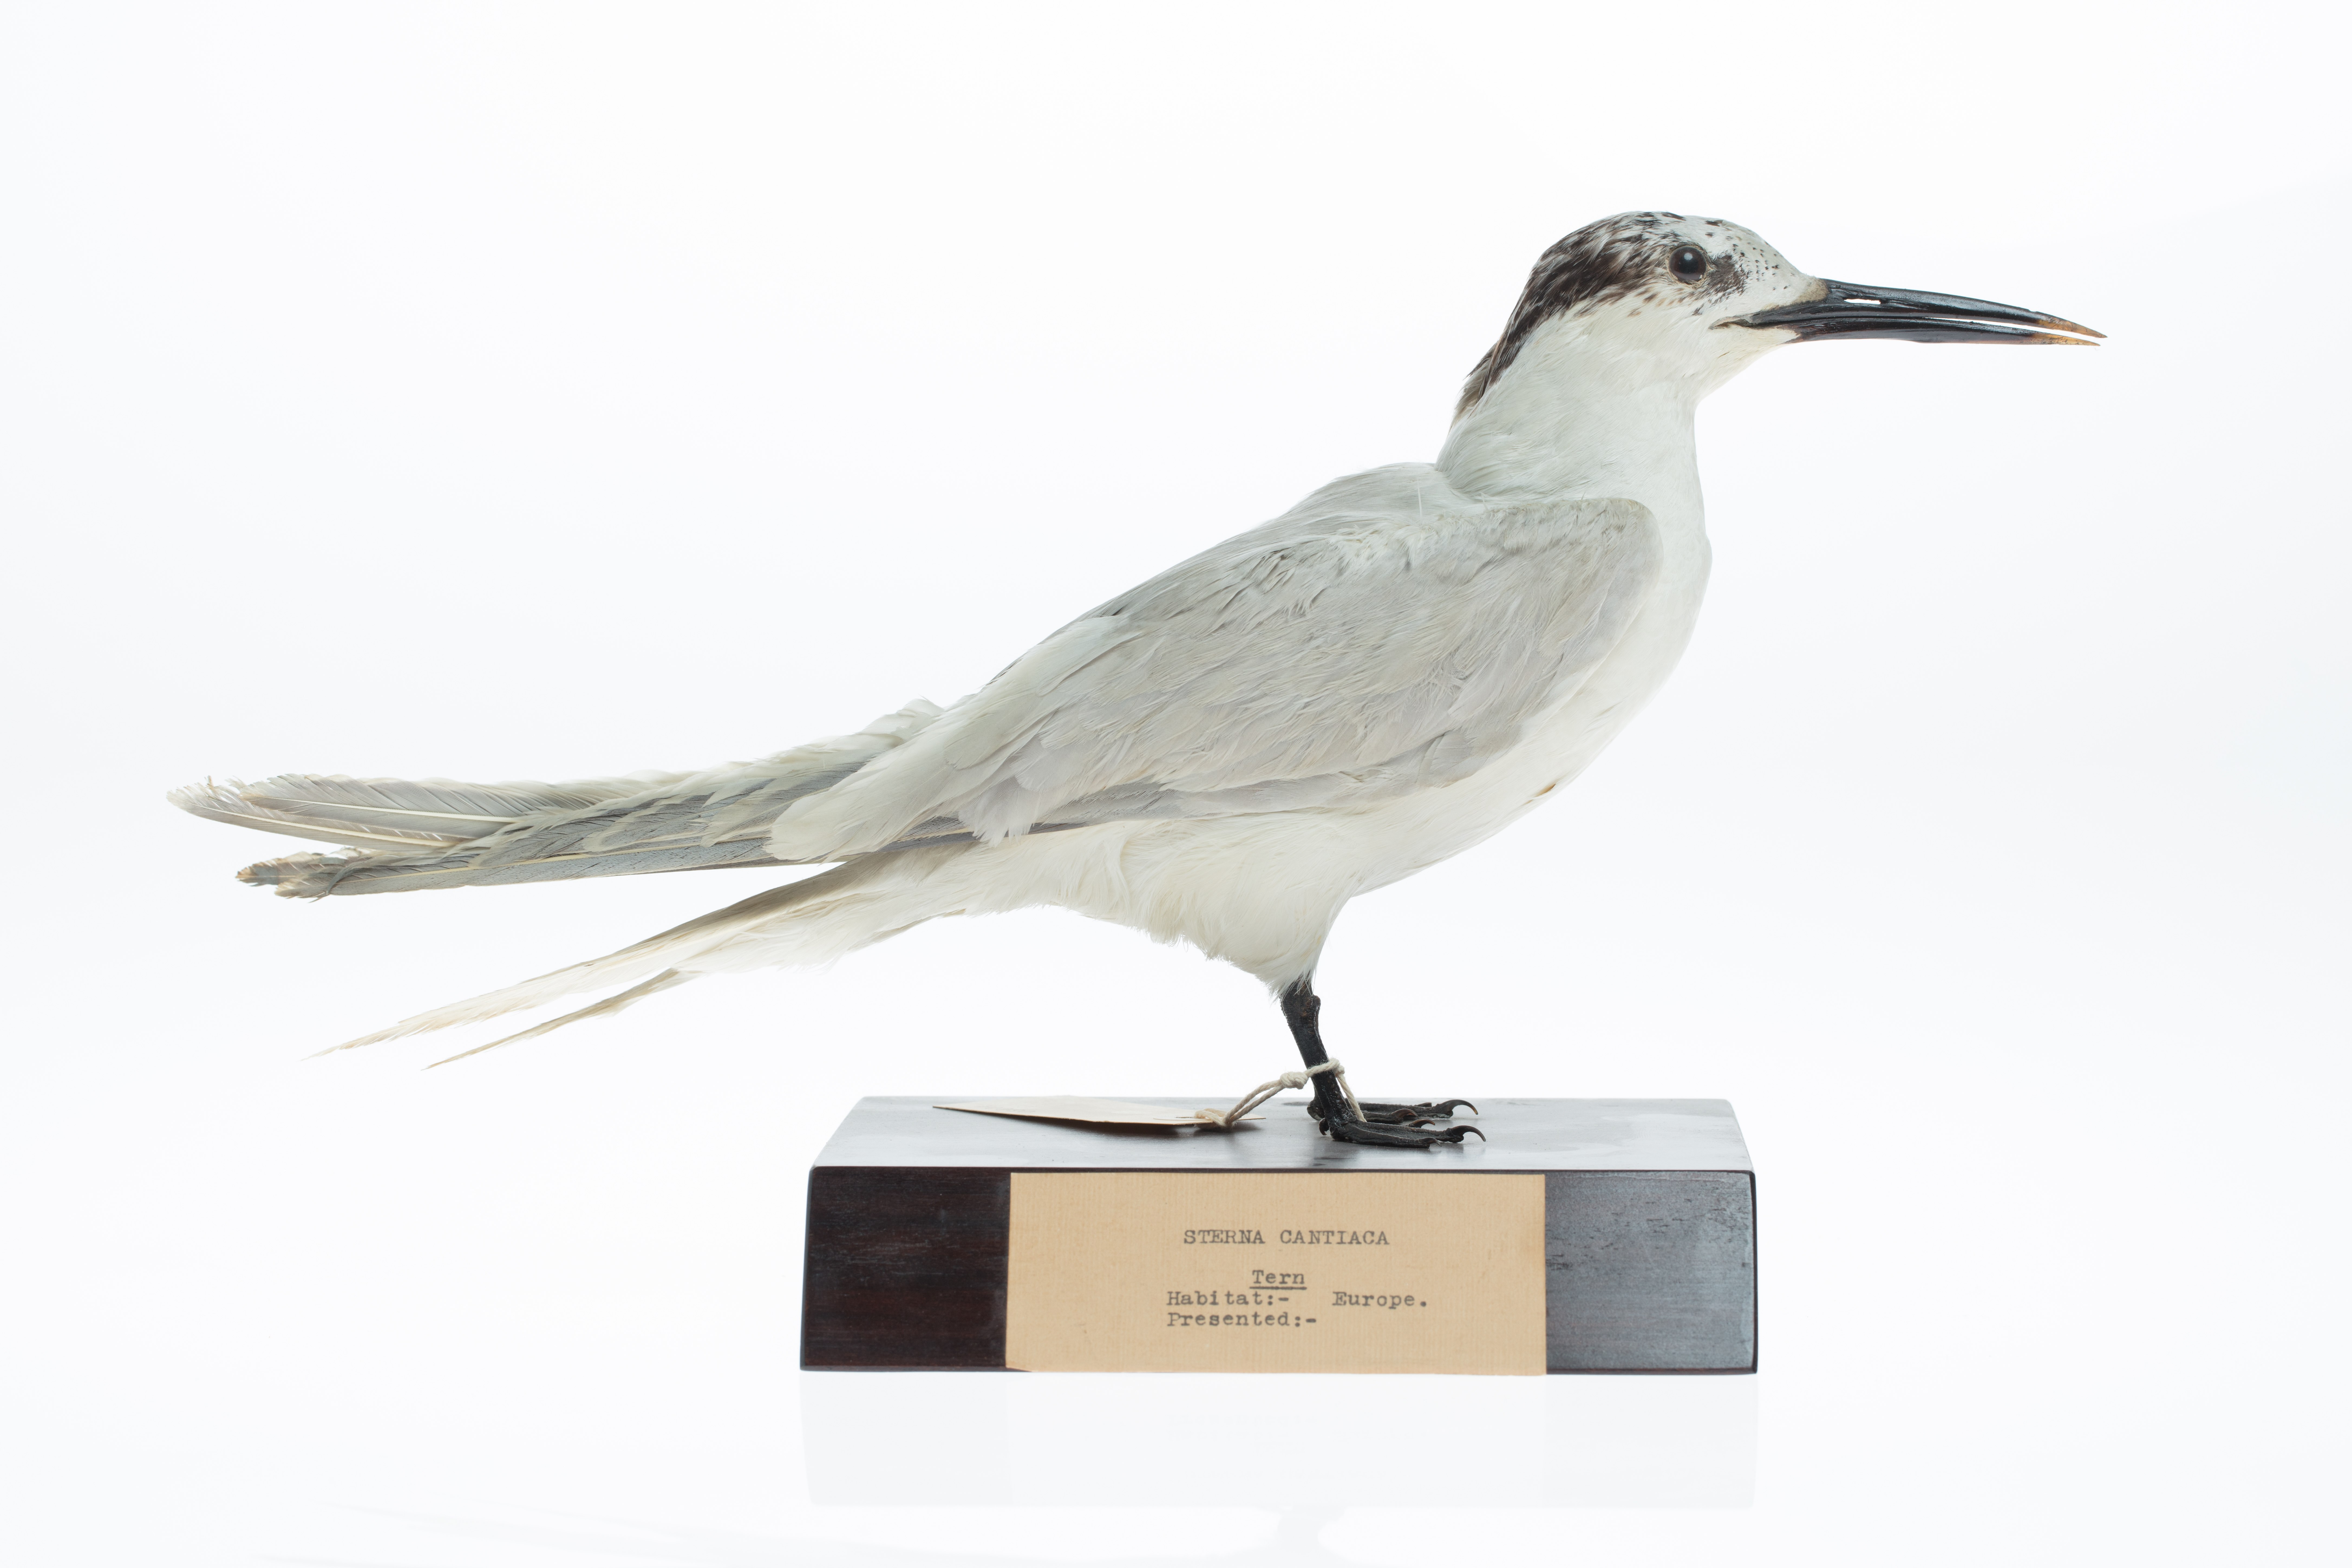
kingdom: Animalia
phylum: Chordata
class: Aves
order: Charadriiformes
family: Laridae
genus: Thalasseus
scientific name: Thalasseus sandvicensis
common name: Sandwich tern
